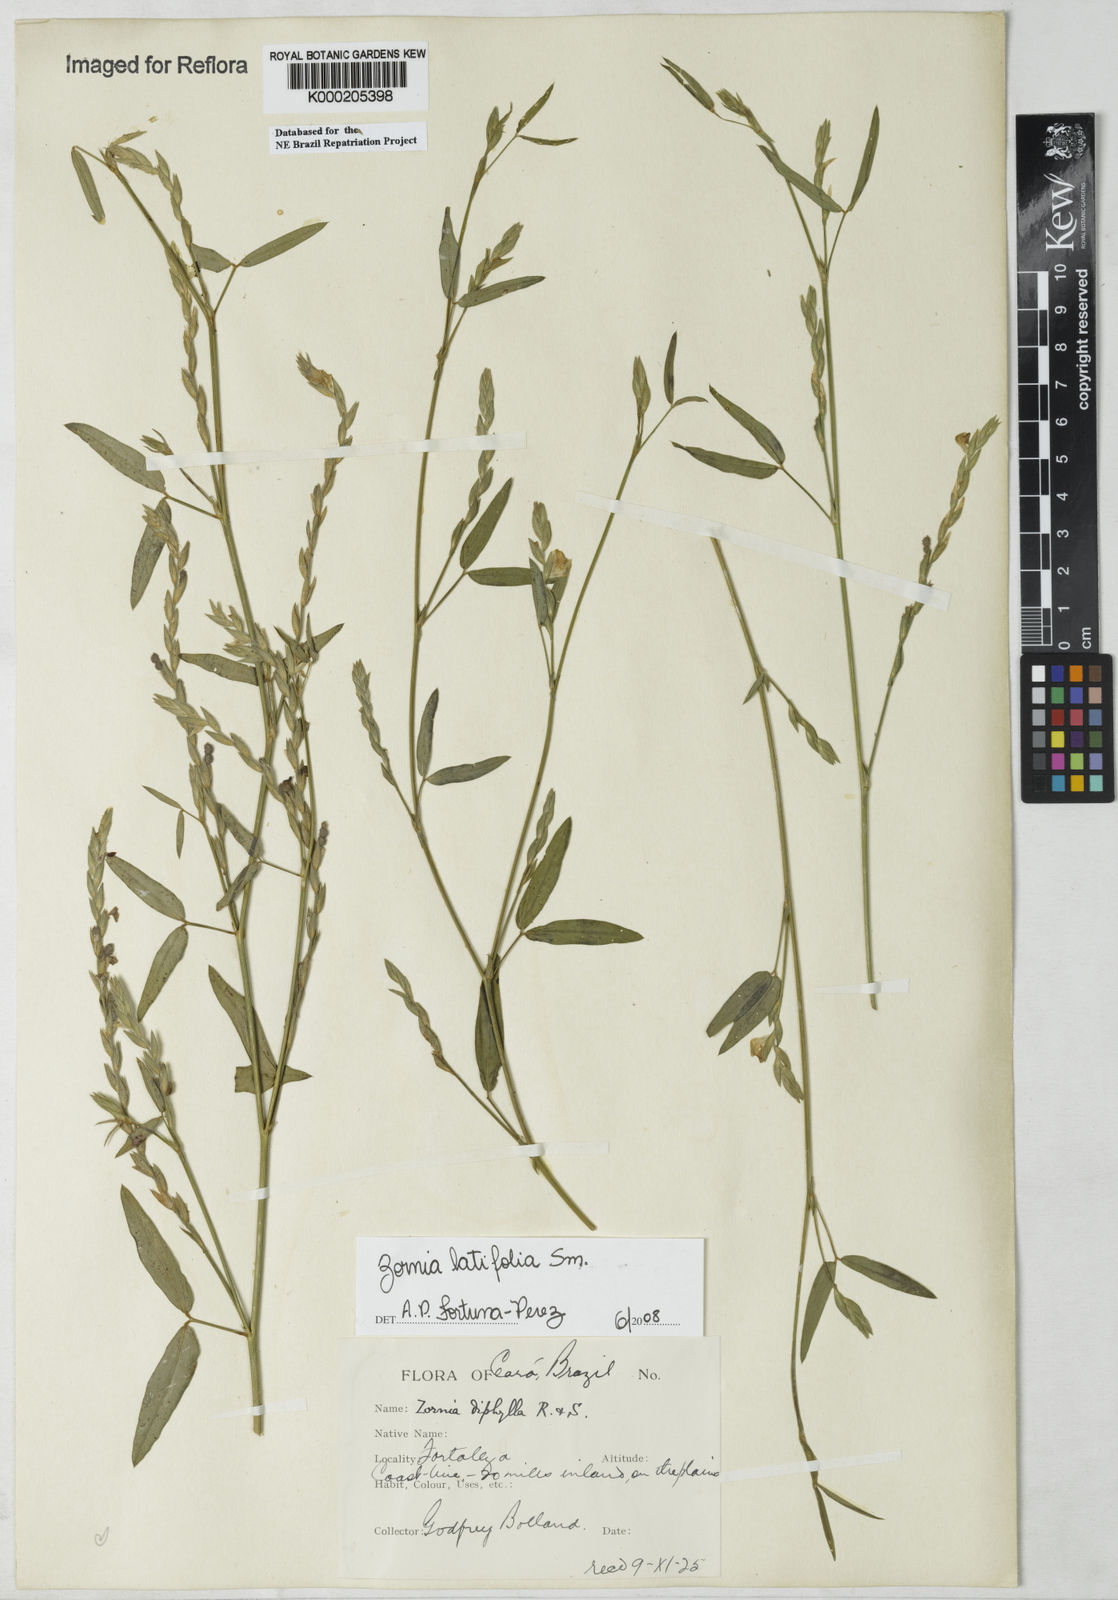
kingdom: Plantae
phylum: Tracheophyta
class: Magnoliopsida
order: Fabales
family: Fabaceae
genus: Zornia
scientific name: Zornia latifolia
